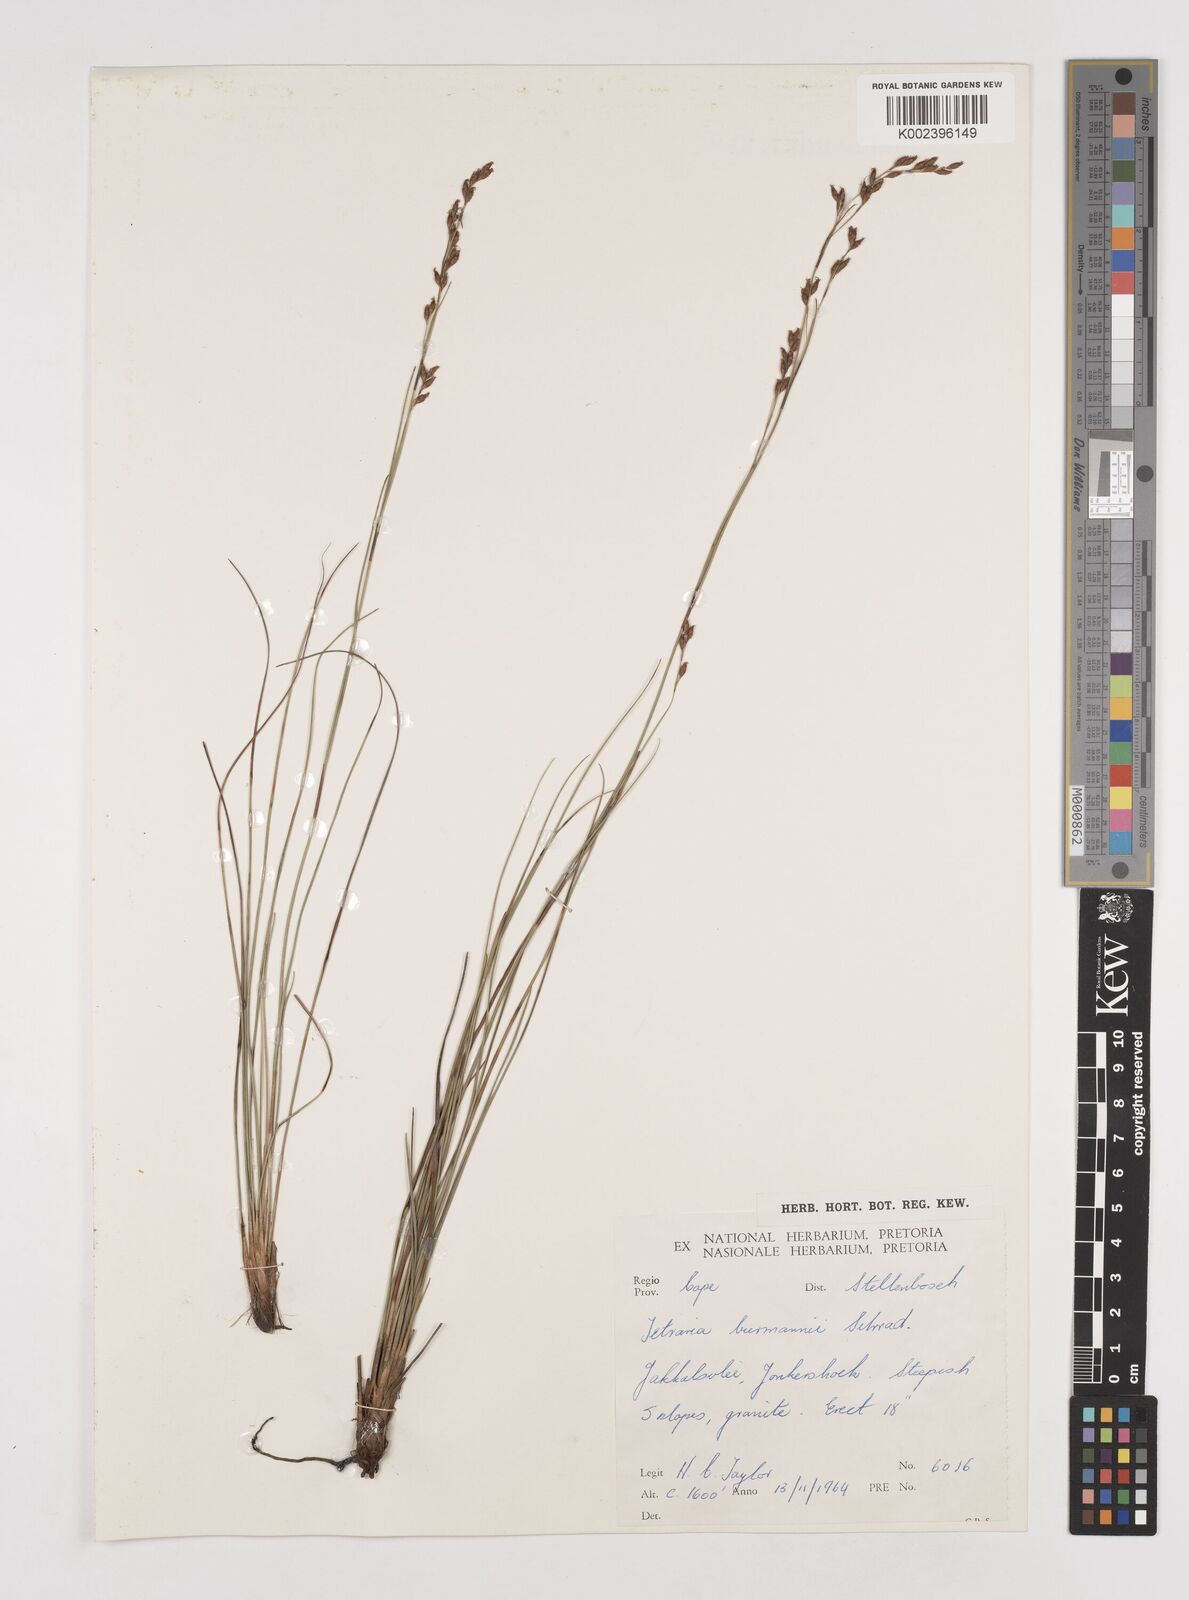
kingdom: Plantae
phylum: Tracheophyta
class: Liliopsida
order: Poales
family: Cyperaceae
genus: Tetraria
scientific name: Tetraria burmanni
